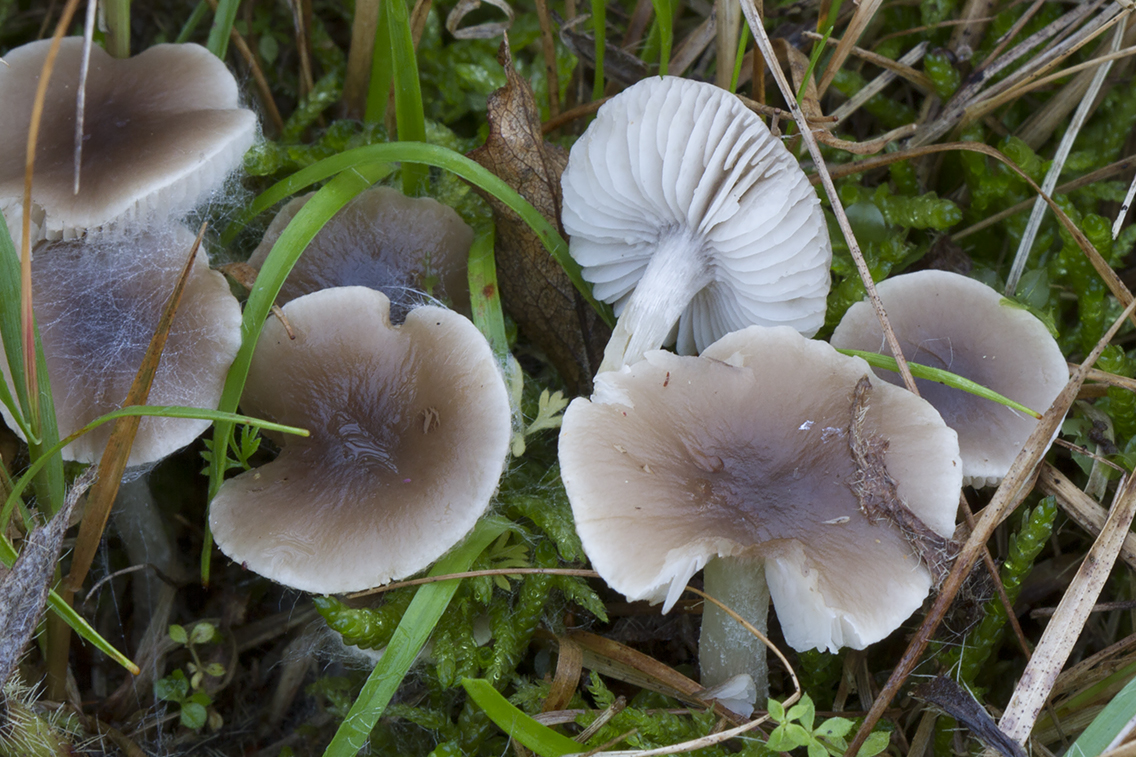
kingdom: Fungi
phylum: Basidiomycota
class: Agaricomycetes
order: Agaricales
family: Tricholomataceae
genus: Dermoloma
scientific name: Dermoloma cuneifolium
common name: eng-nonnehat
